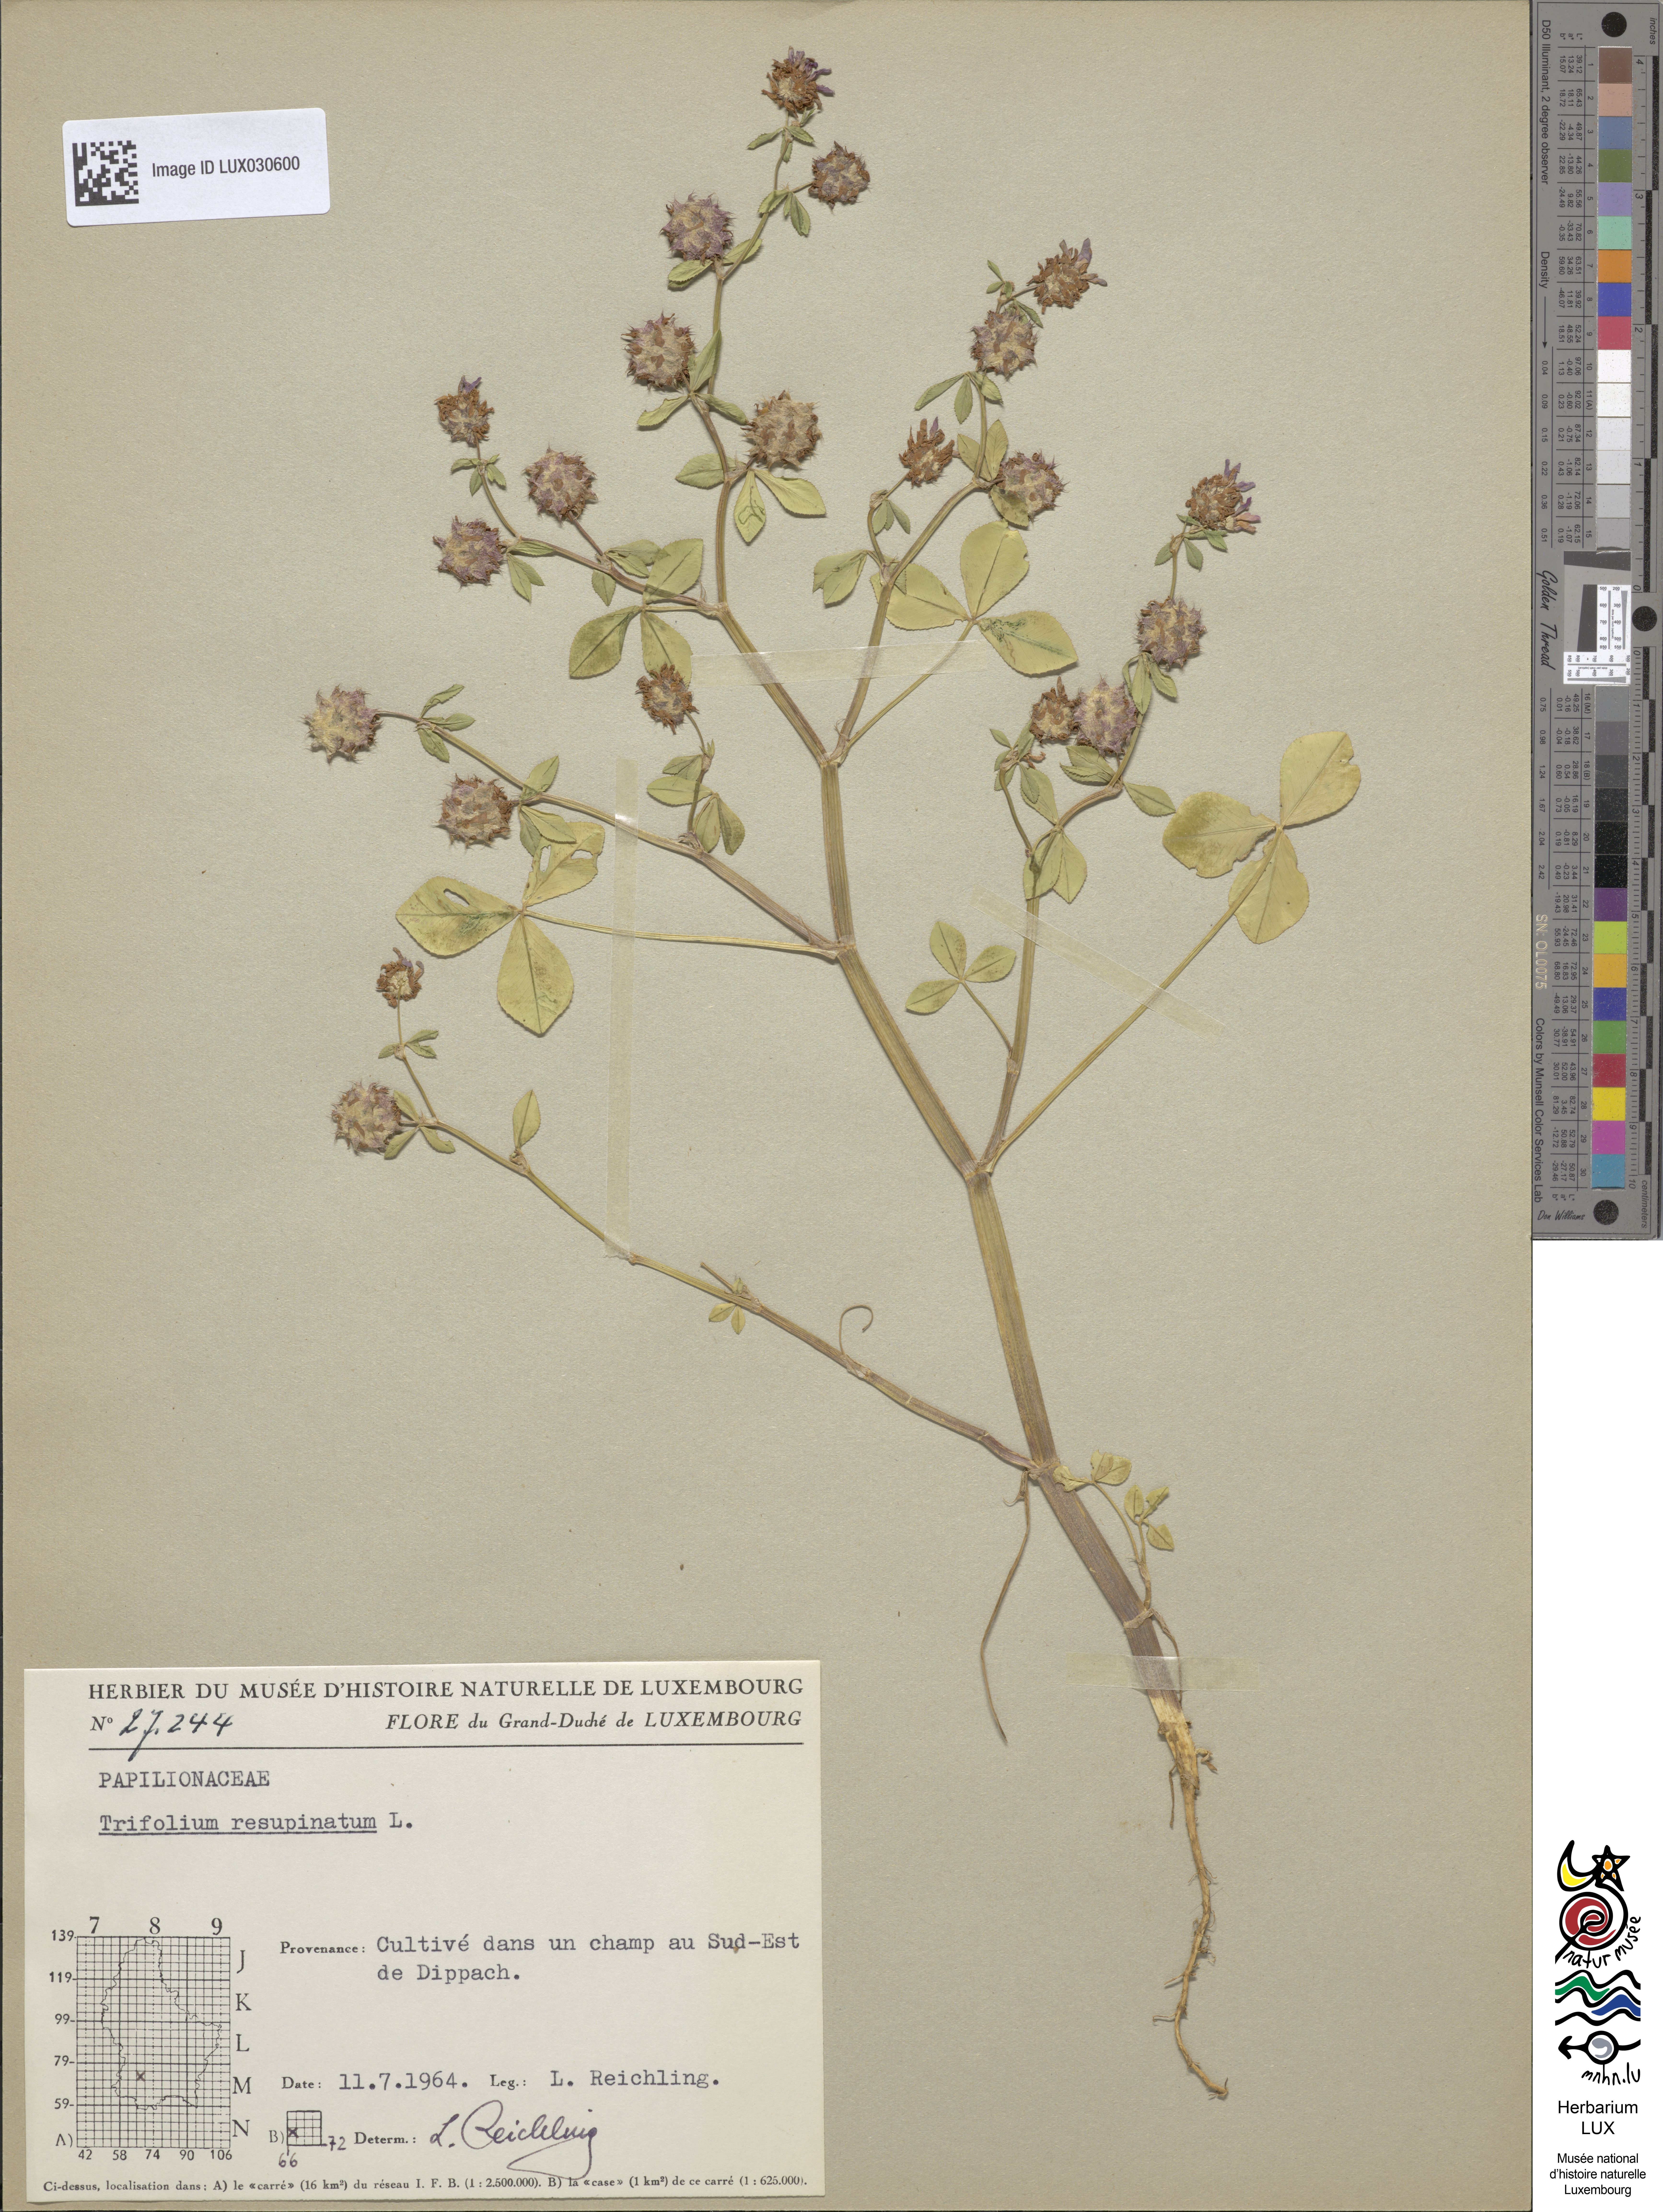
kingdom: Plantae
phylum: Tracheophyta
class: Magnoliopsida
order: Fabales
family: Fabaceae
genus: Trifolium
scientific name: Trifolium resupinatum
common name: Reversed clover
